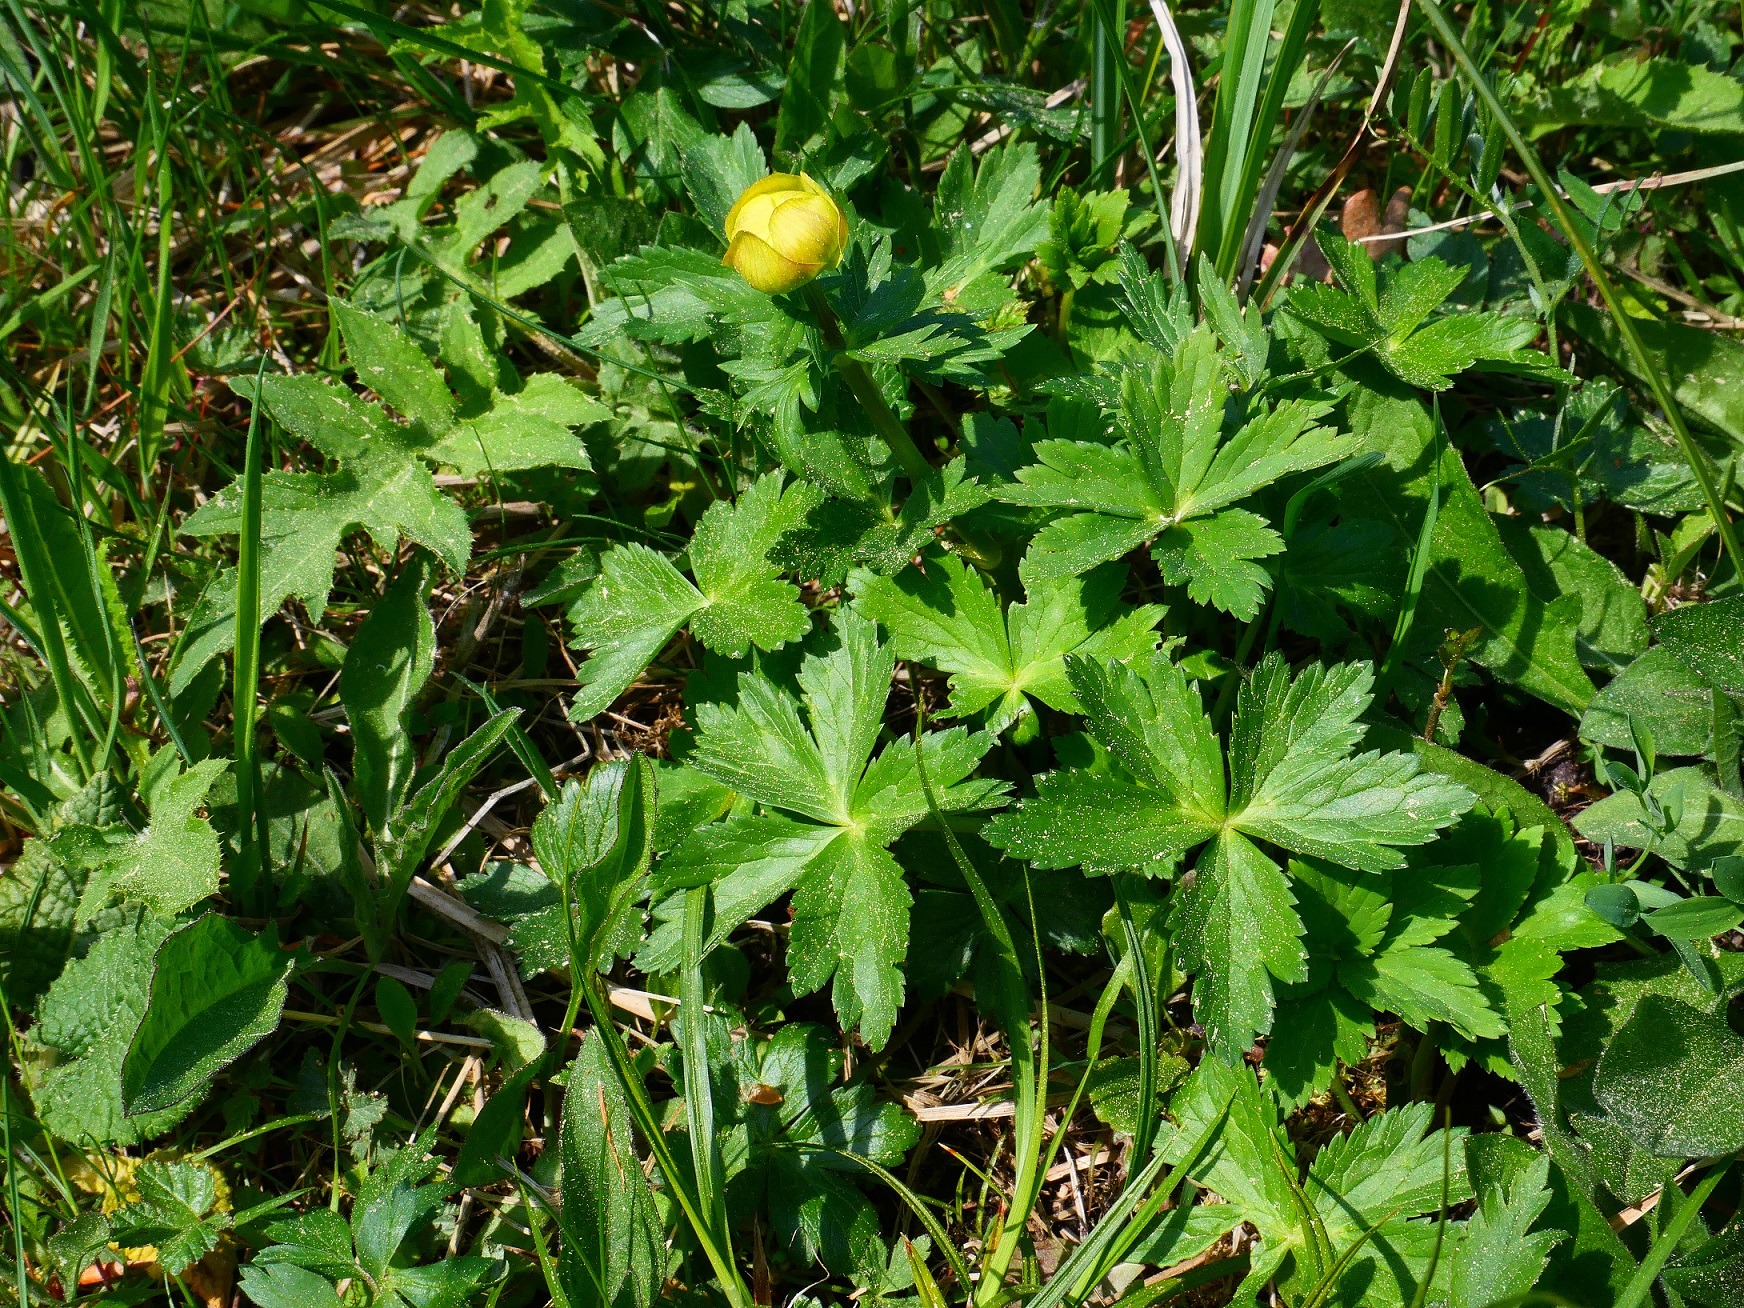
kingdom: Plantae
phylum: Tracheophyta
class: Magnoliopsida
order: Ranunculales
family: Ranunculaceae
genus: Trollius
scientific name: Trollius europaeus
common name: Engblomme
